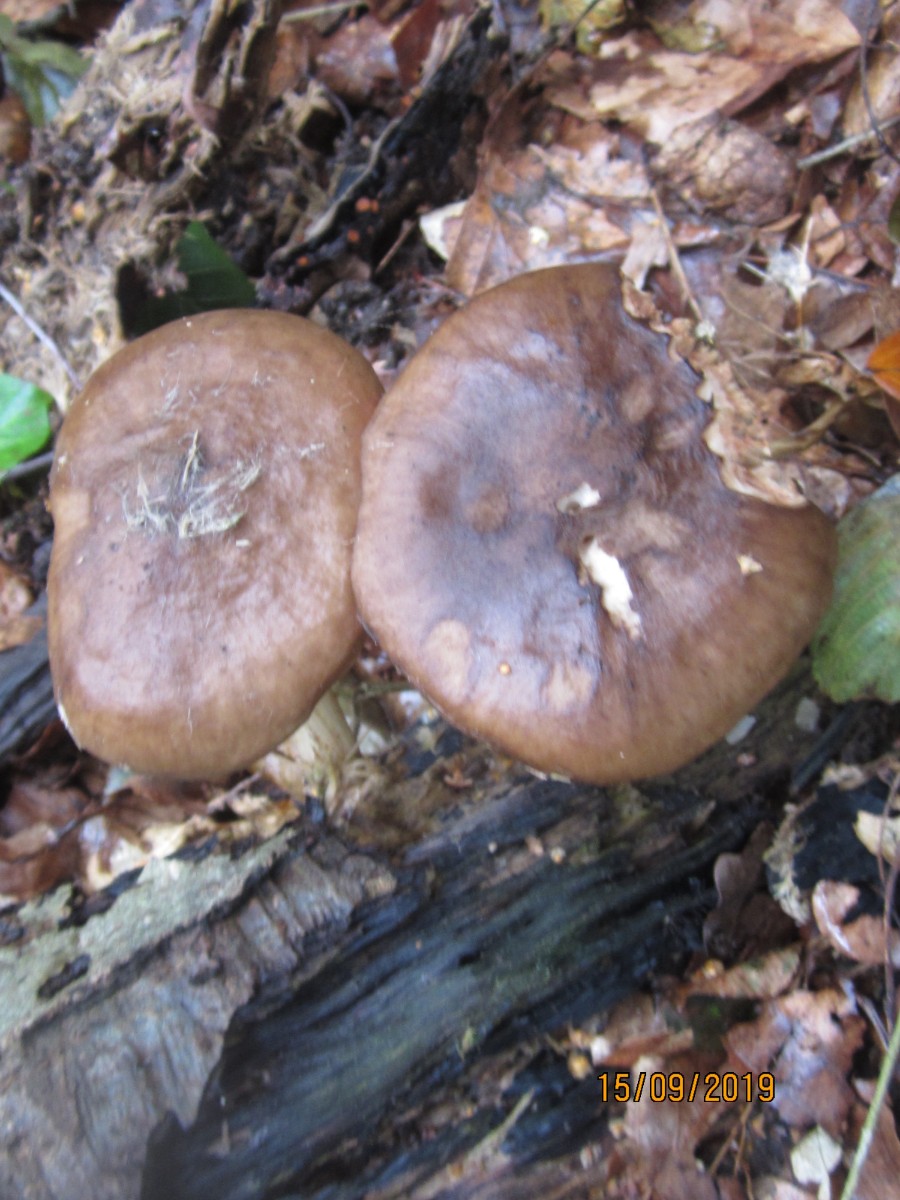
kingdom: Fungi
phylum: Basidiomycota
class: Agaricomycetes
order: Agaricales
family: Pluteaceae
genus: Pluteus
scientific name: Pluteus cervinus
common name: sodfarvet skærmhat
